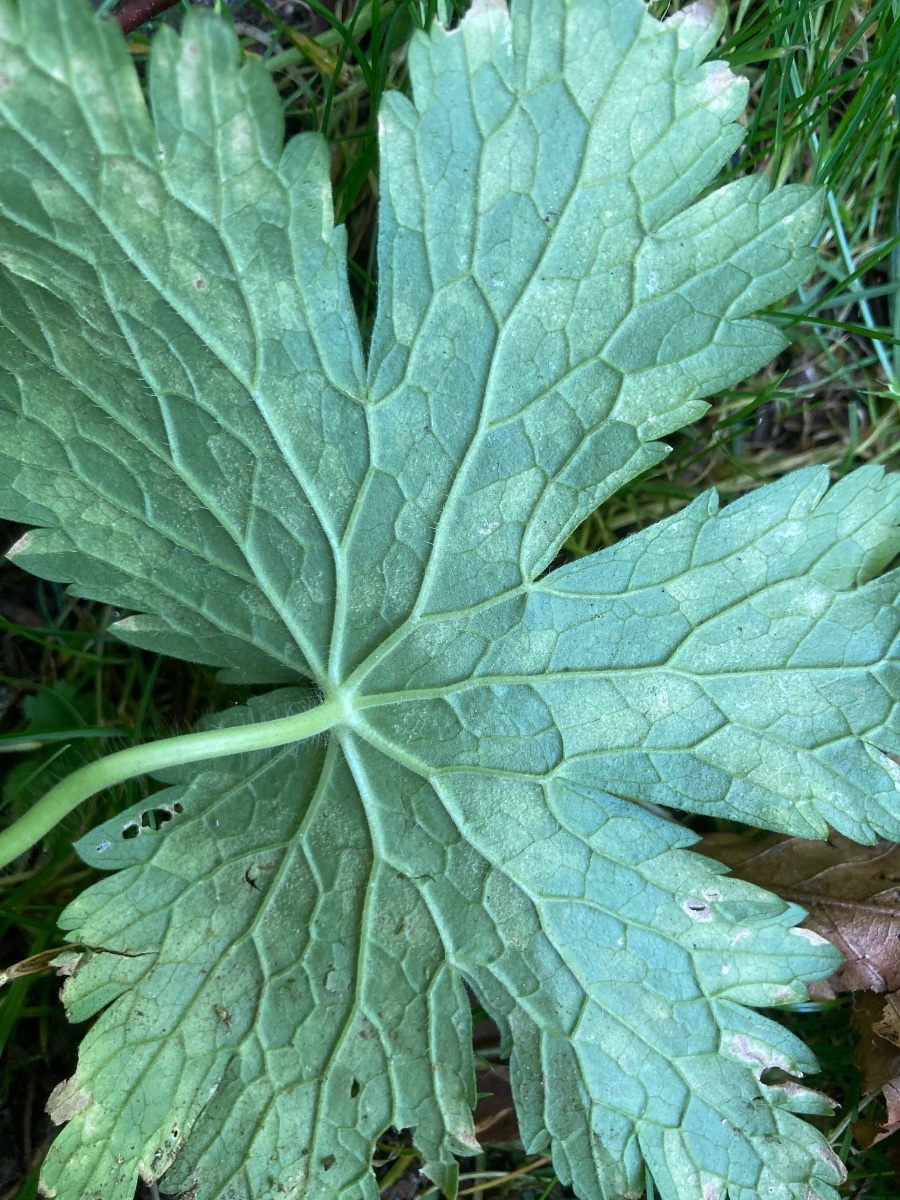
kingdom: Chromista
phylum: Oomycota
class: Peronosporea
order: Peronosporales
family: Peronosporaceae
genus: Peronospora
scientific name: Peronospora conglomerata
